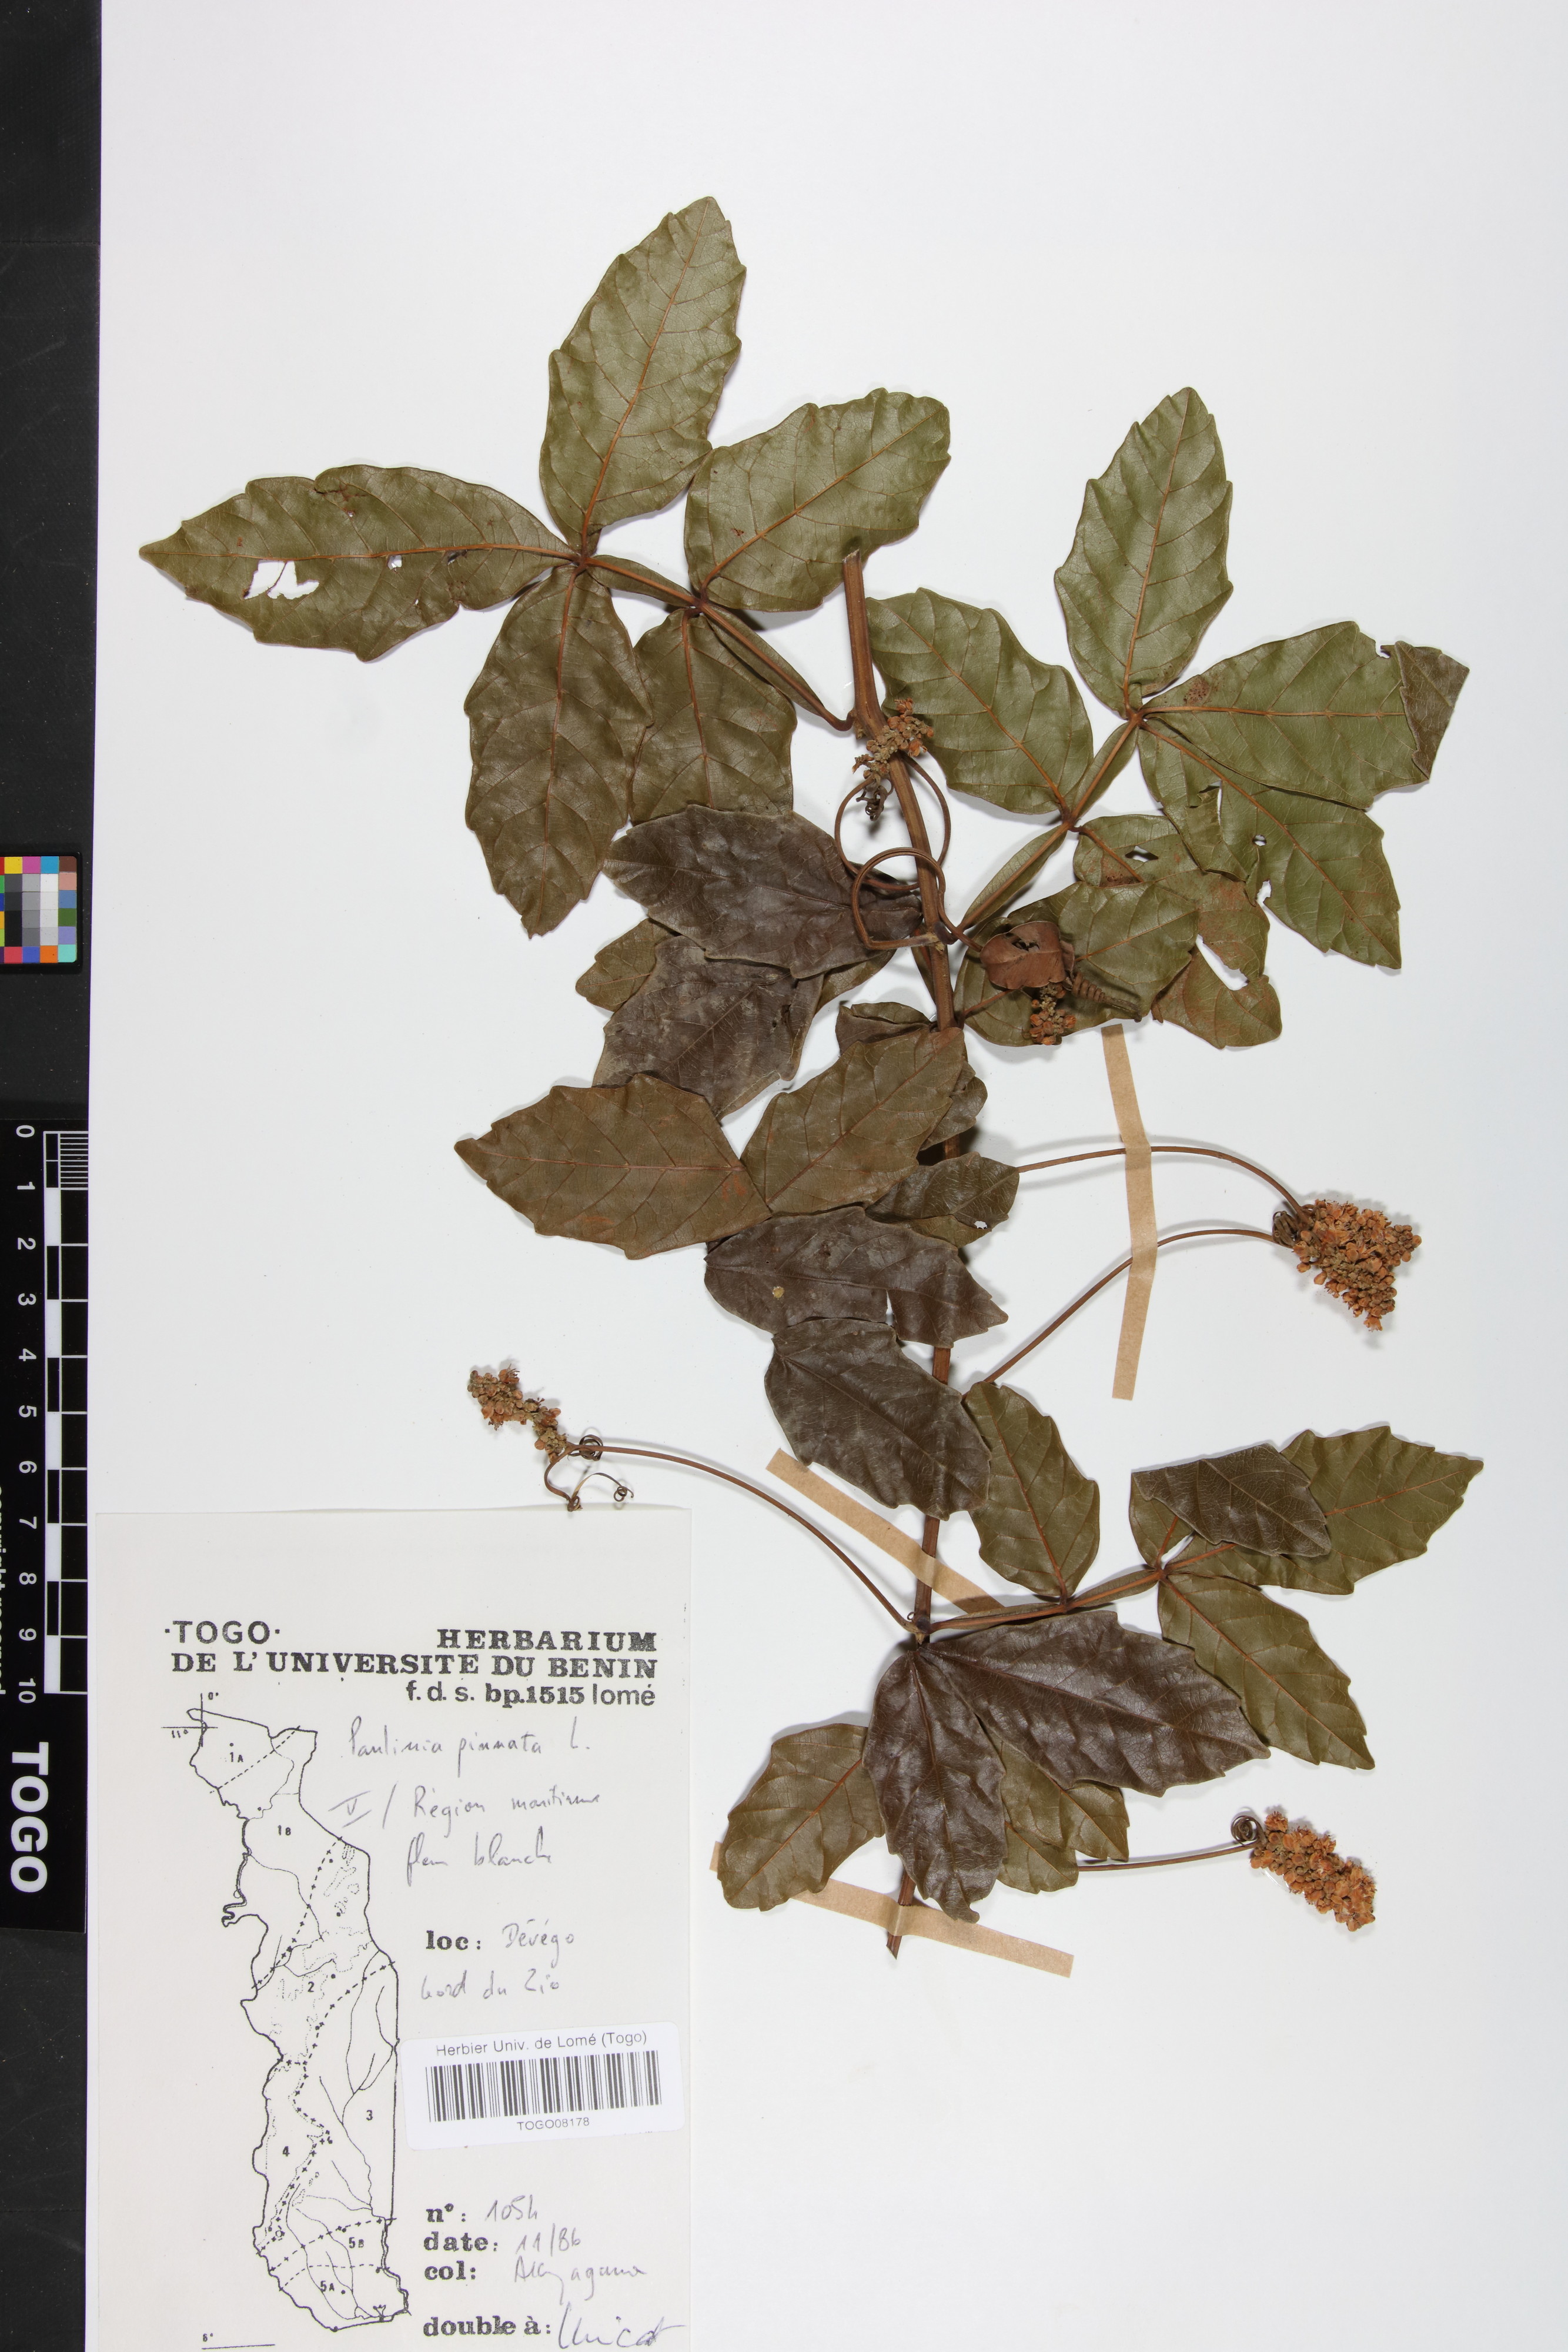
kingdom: Plantae
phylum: Tracheophyta
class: Magnoliopsida
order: Sapindales
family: Sapindaceae
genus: Paullinia
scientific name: Paullinia pinnata
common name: Barbasco
